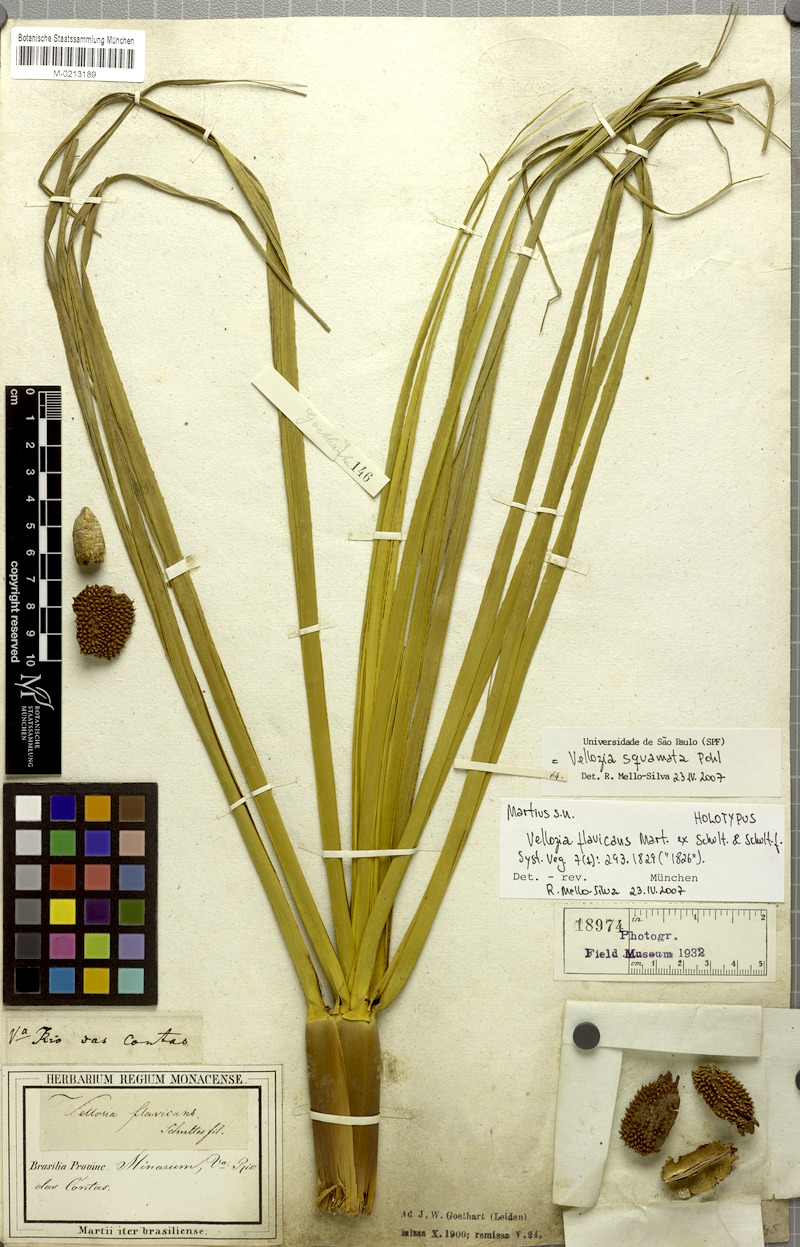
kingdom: Plantae
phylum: Tracheophyta
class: Liliopsida
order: Pandanales
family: Velloziaceae
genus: Vellozia
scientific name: Vellozia squamata
